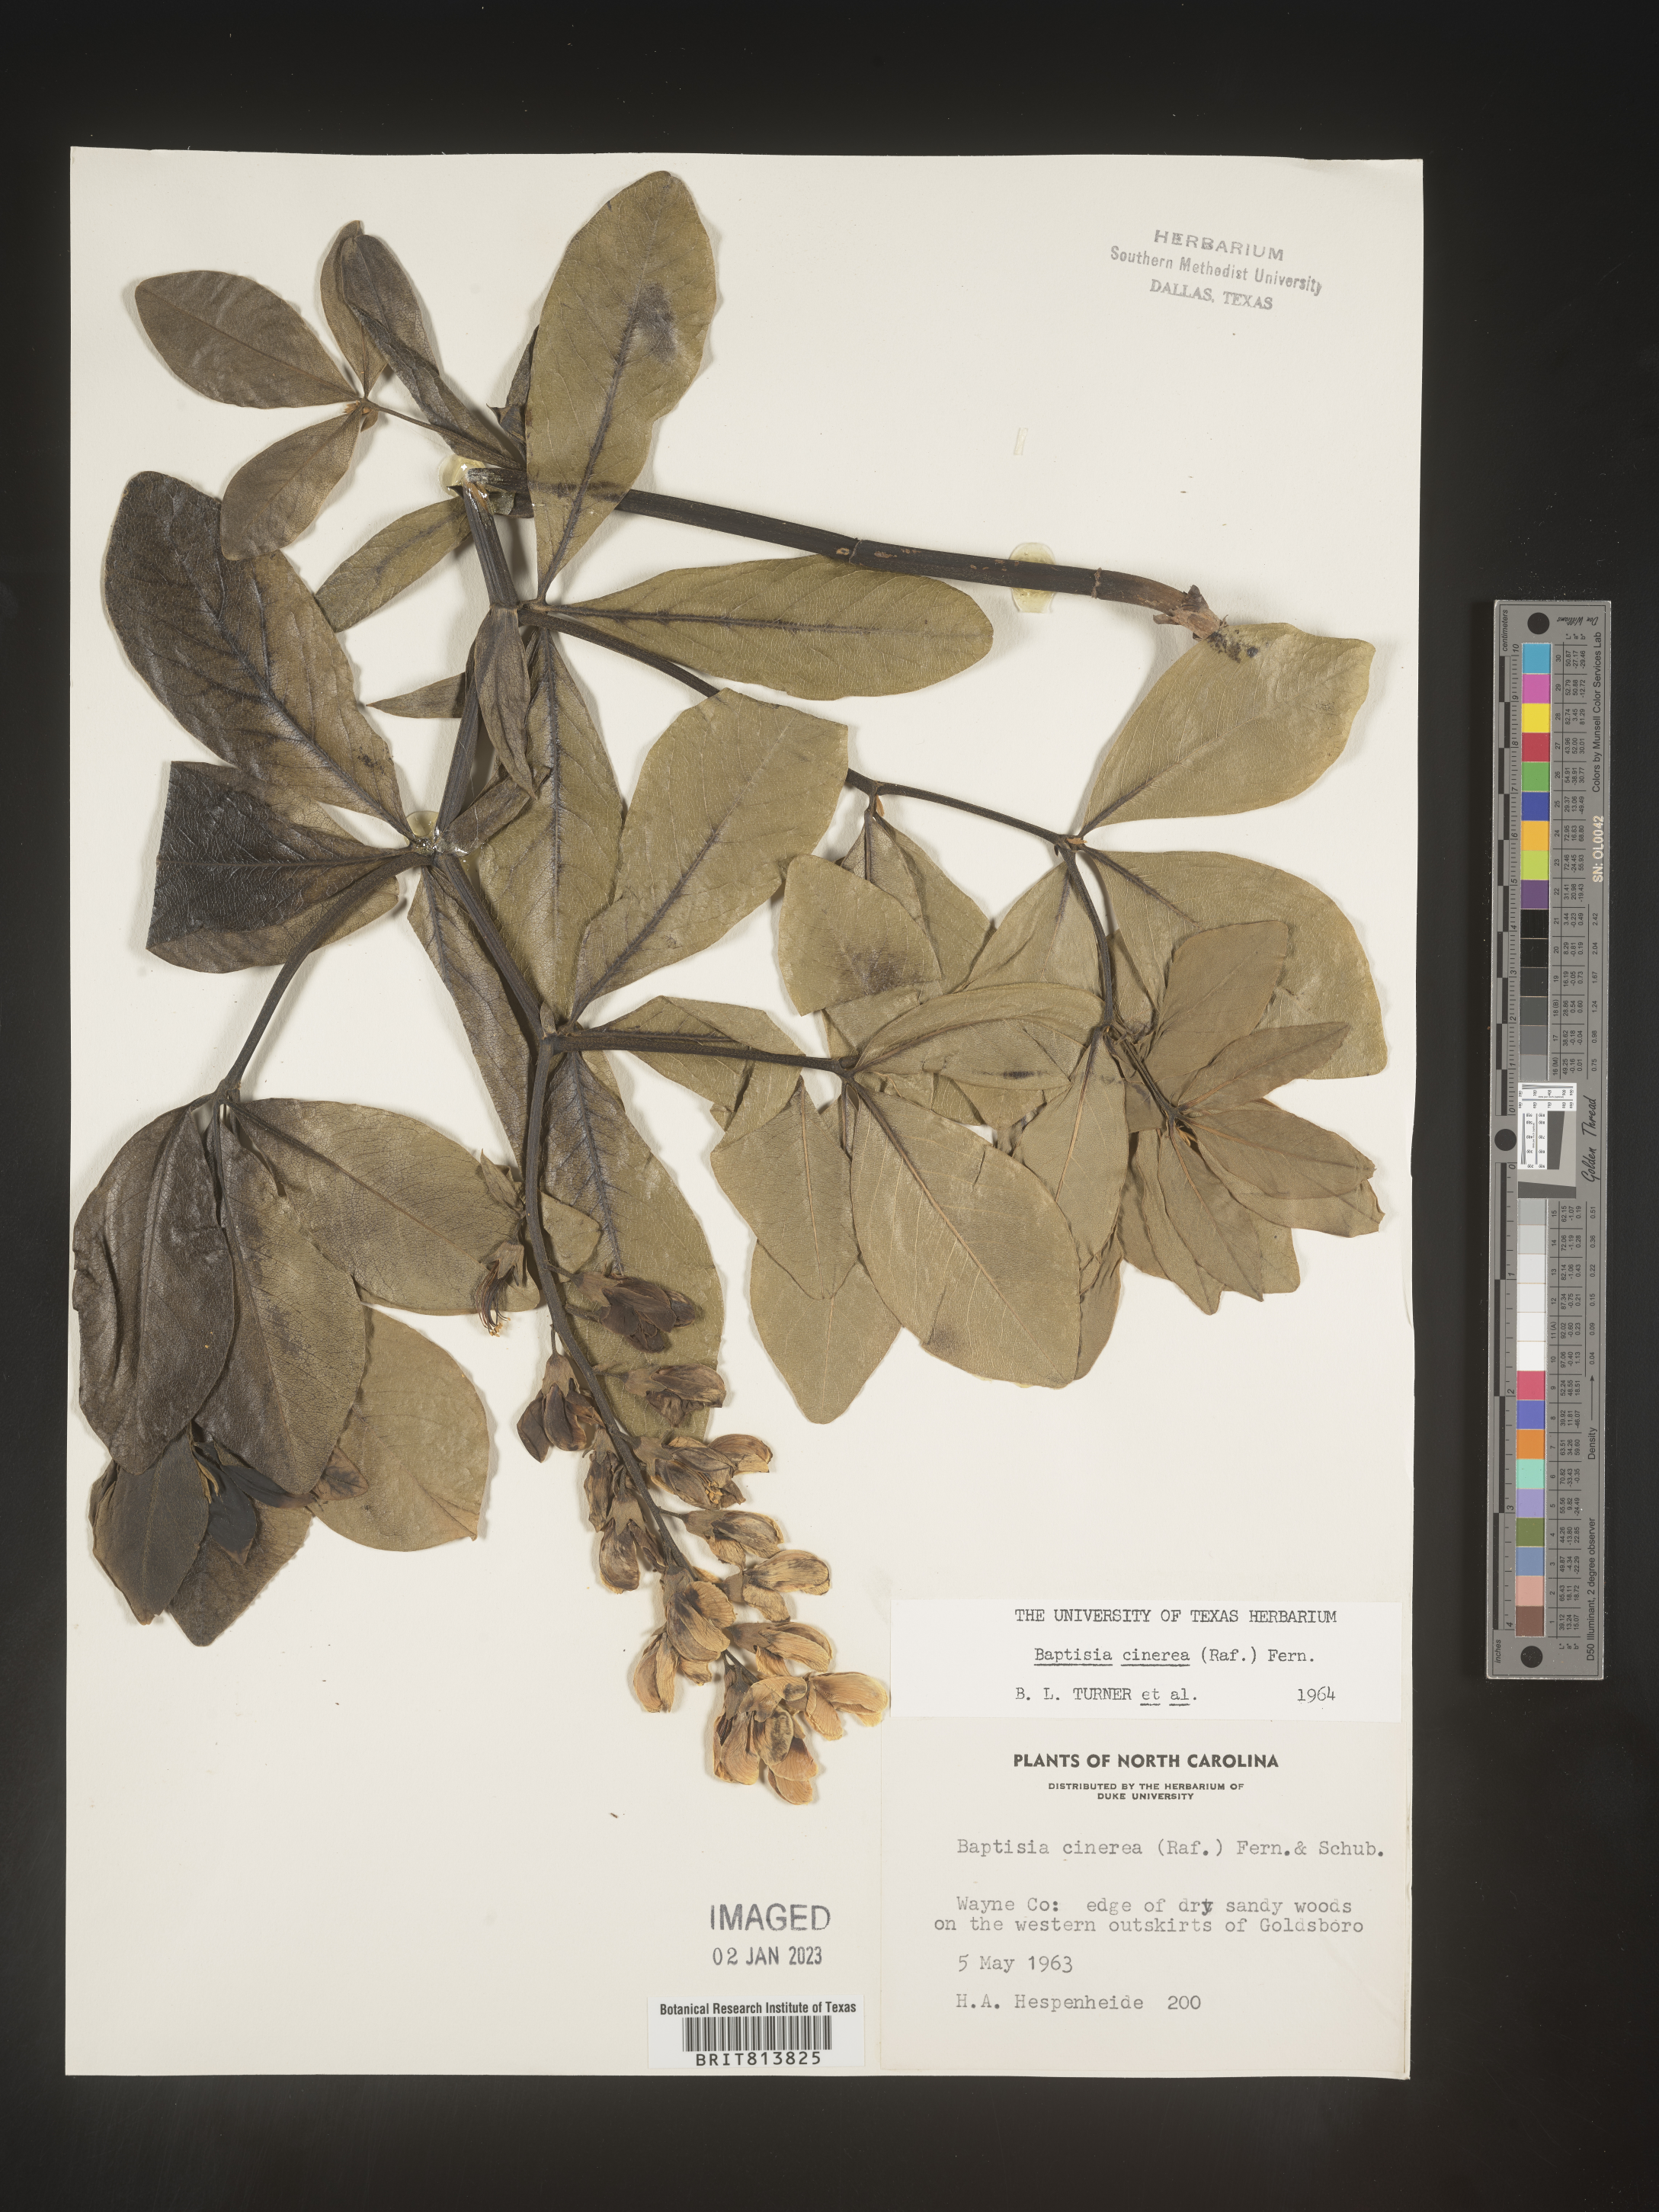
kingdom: Plantae
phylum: Tracheophyta
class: Magnoliopsida
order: Fabales
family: Fabaceae
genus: Baptisia
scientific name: Baptisia cinerea
